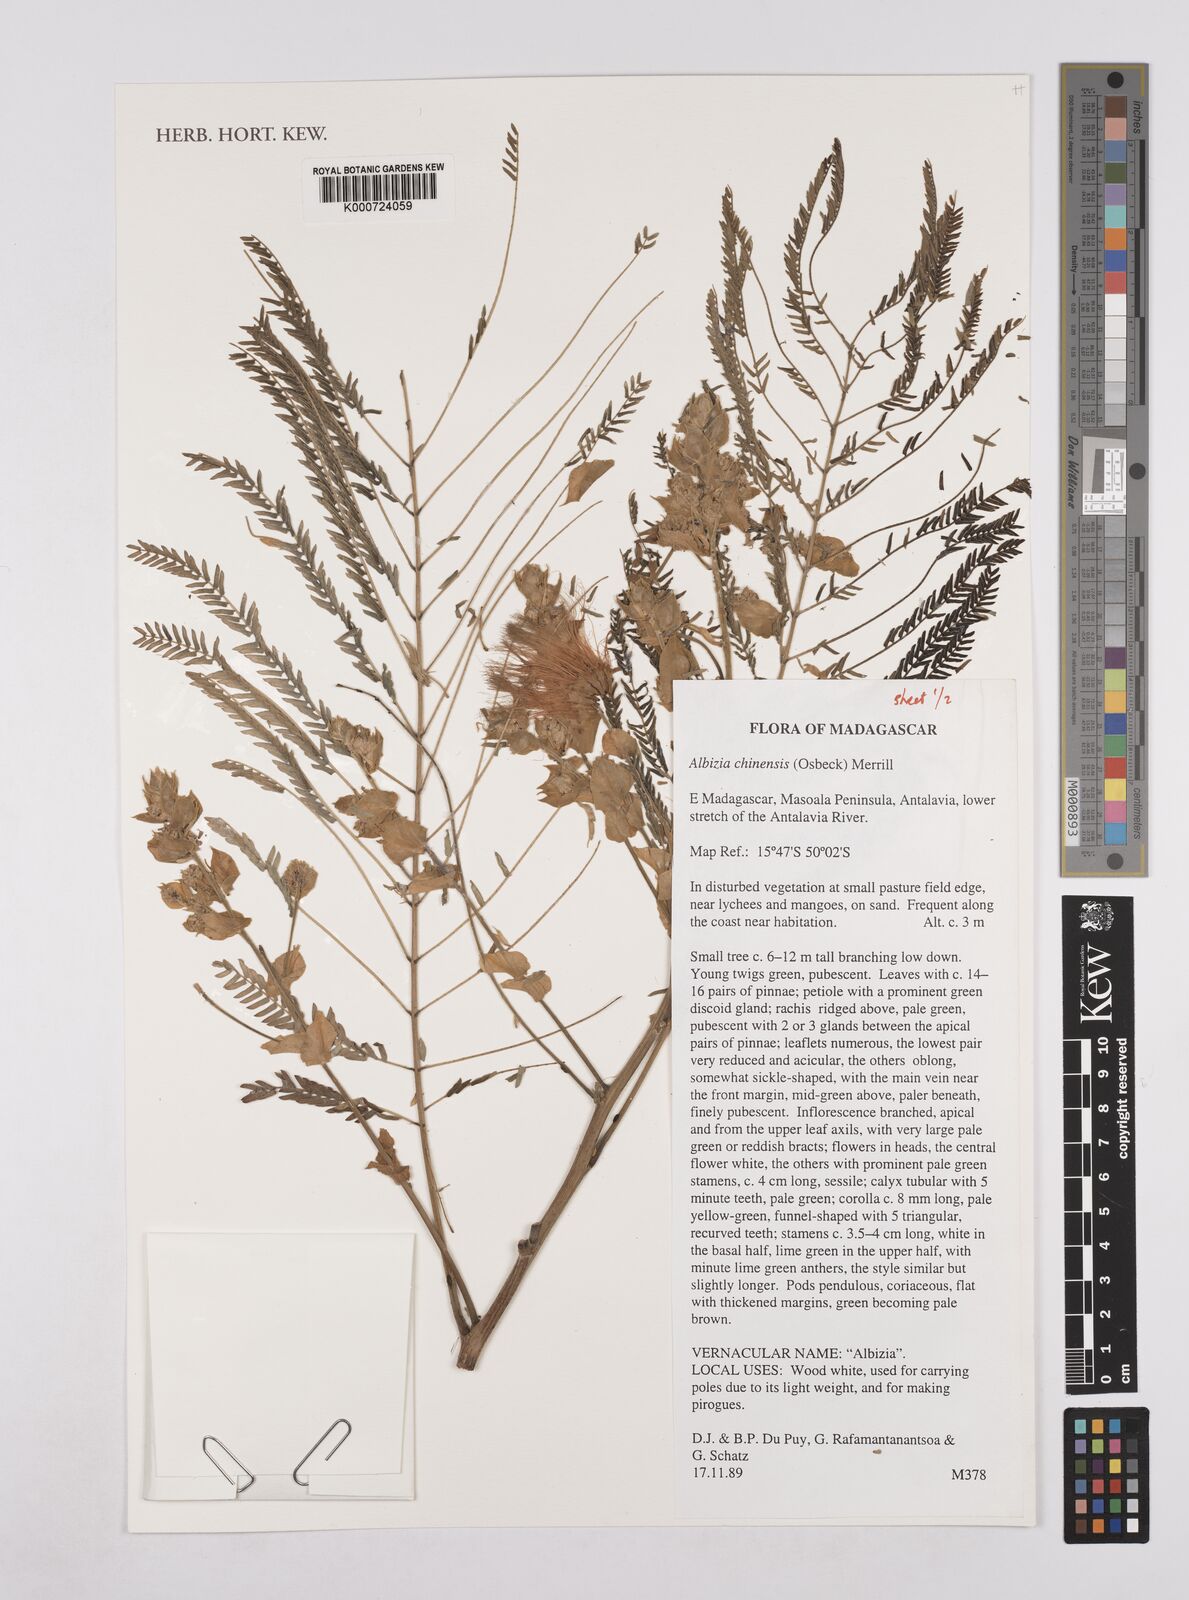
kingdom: Plantae
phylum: Tracheophyta
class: Magnoliopsida
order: Fabales
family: Fabaceae
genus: Albizia
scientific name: Albizia chinensis
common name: Chinese albizia
